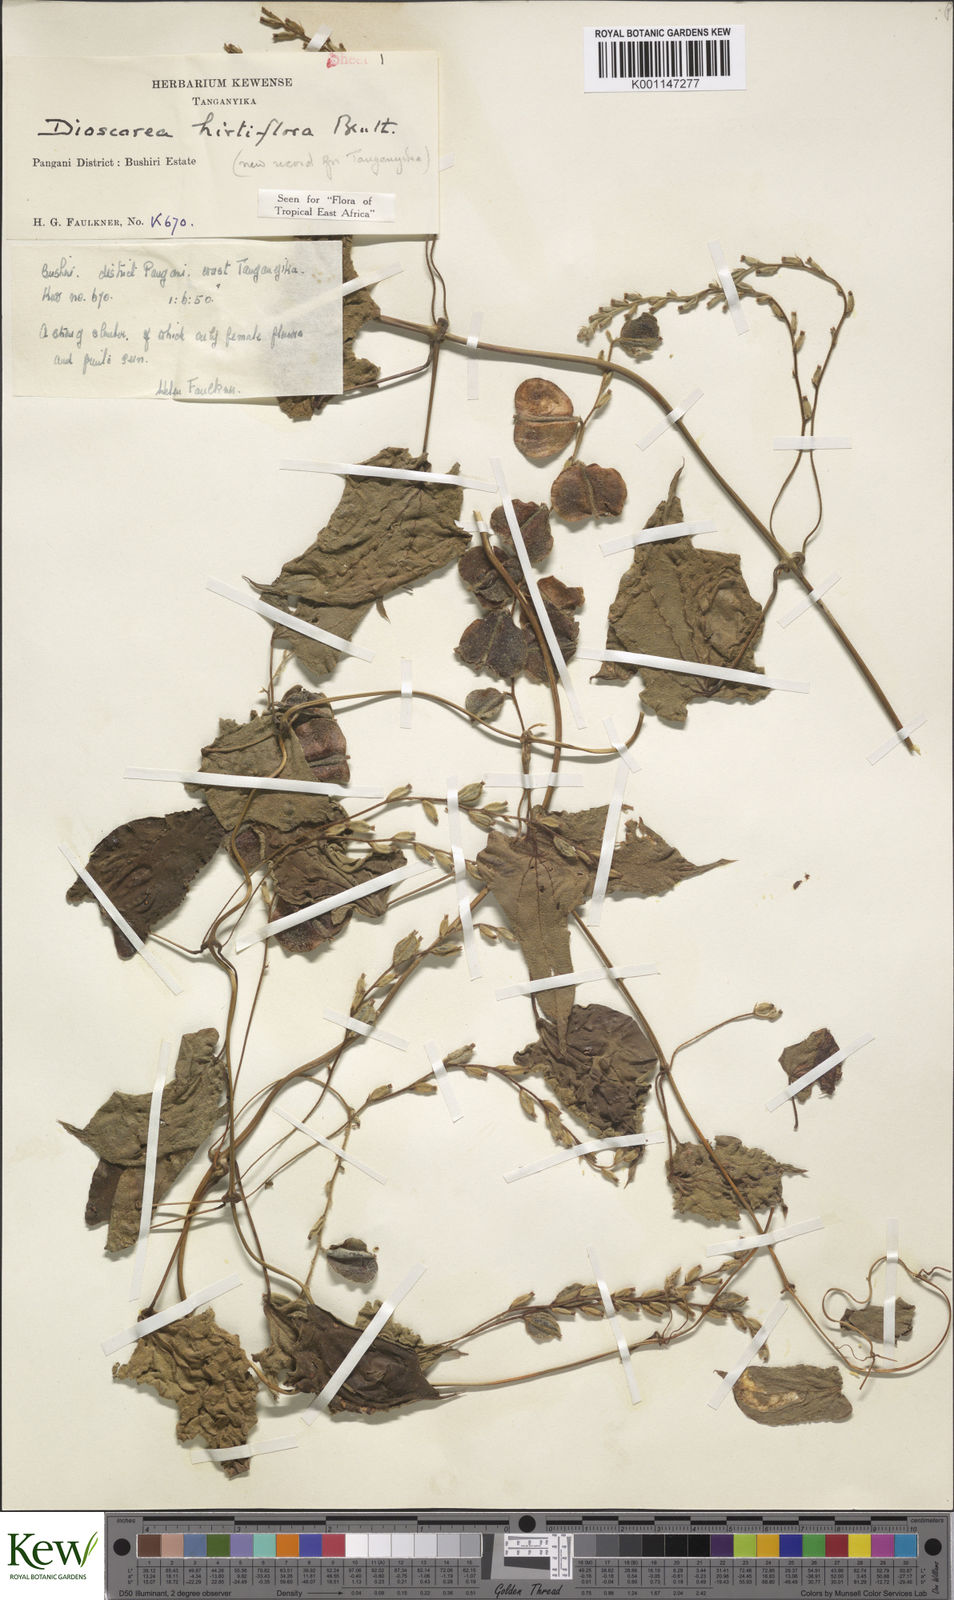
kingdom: Plantae
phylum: Tracheophyta
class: Liliopsida
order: Dioscoreales
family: Dioscoreaceae
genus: Dioscorea
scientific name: Dioscorea hirtiflora
